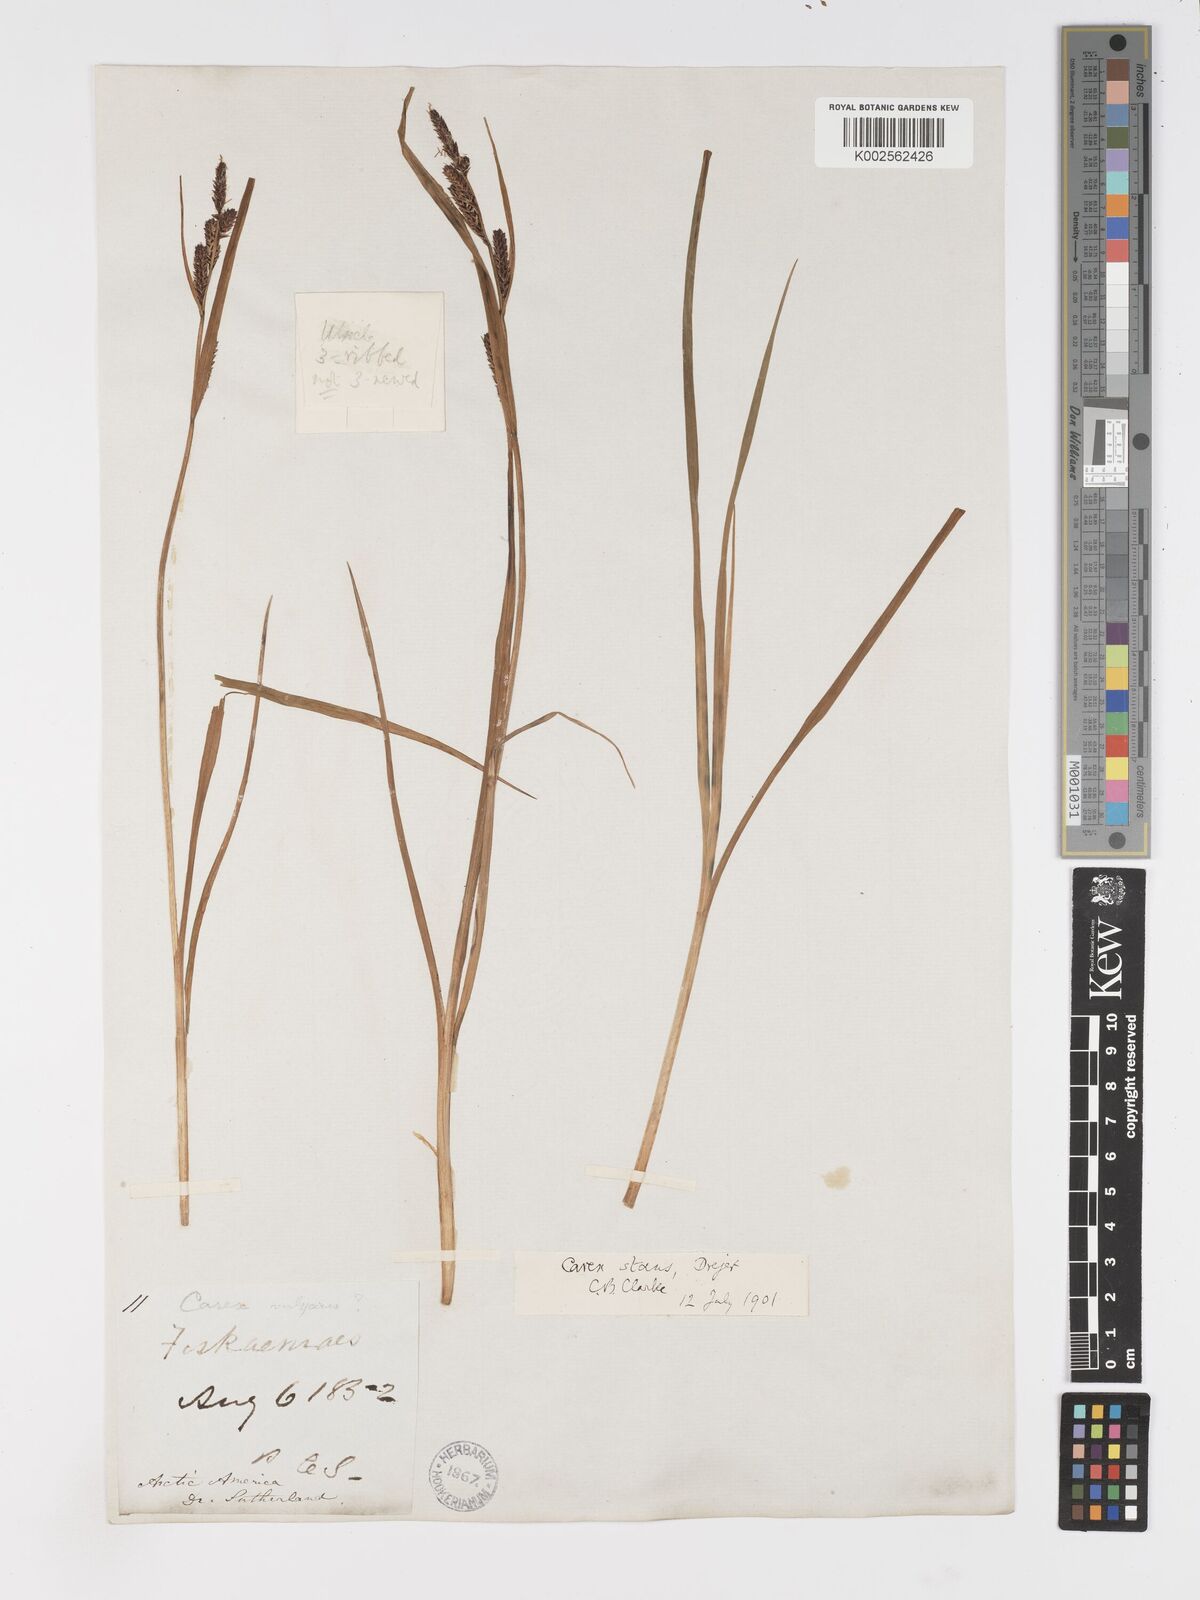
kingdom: Plantae
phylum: Tracheophyta
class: Liliopsida
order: Poales
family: Cyperaceae
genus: Carex
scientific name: Carex
